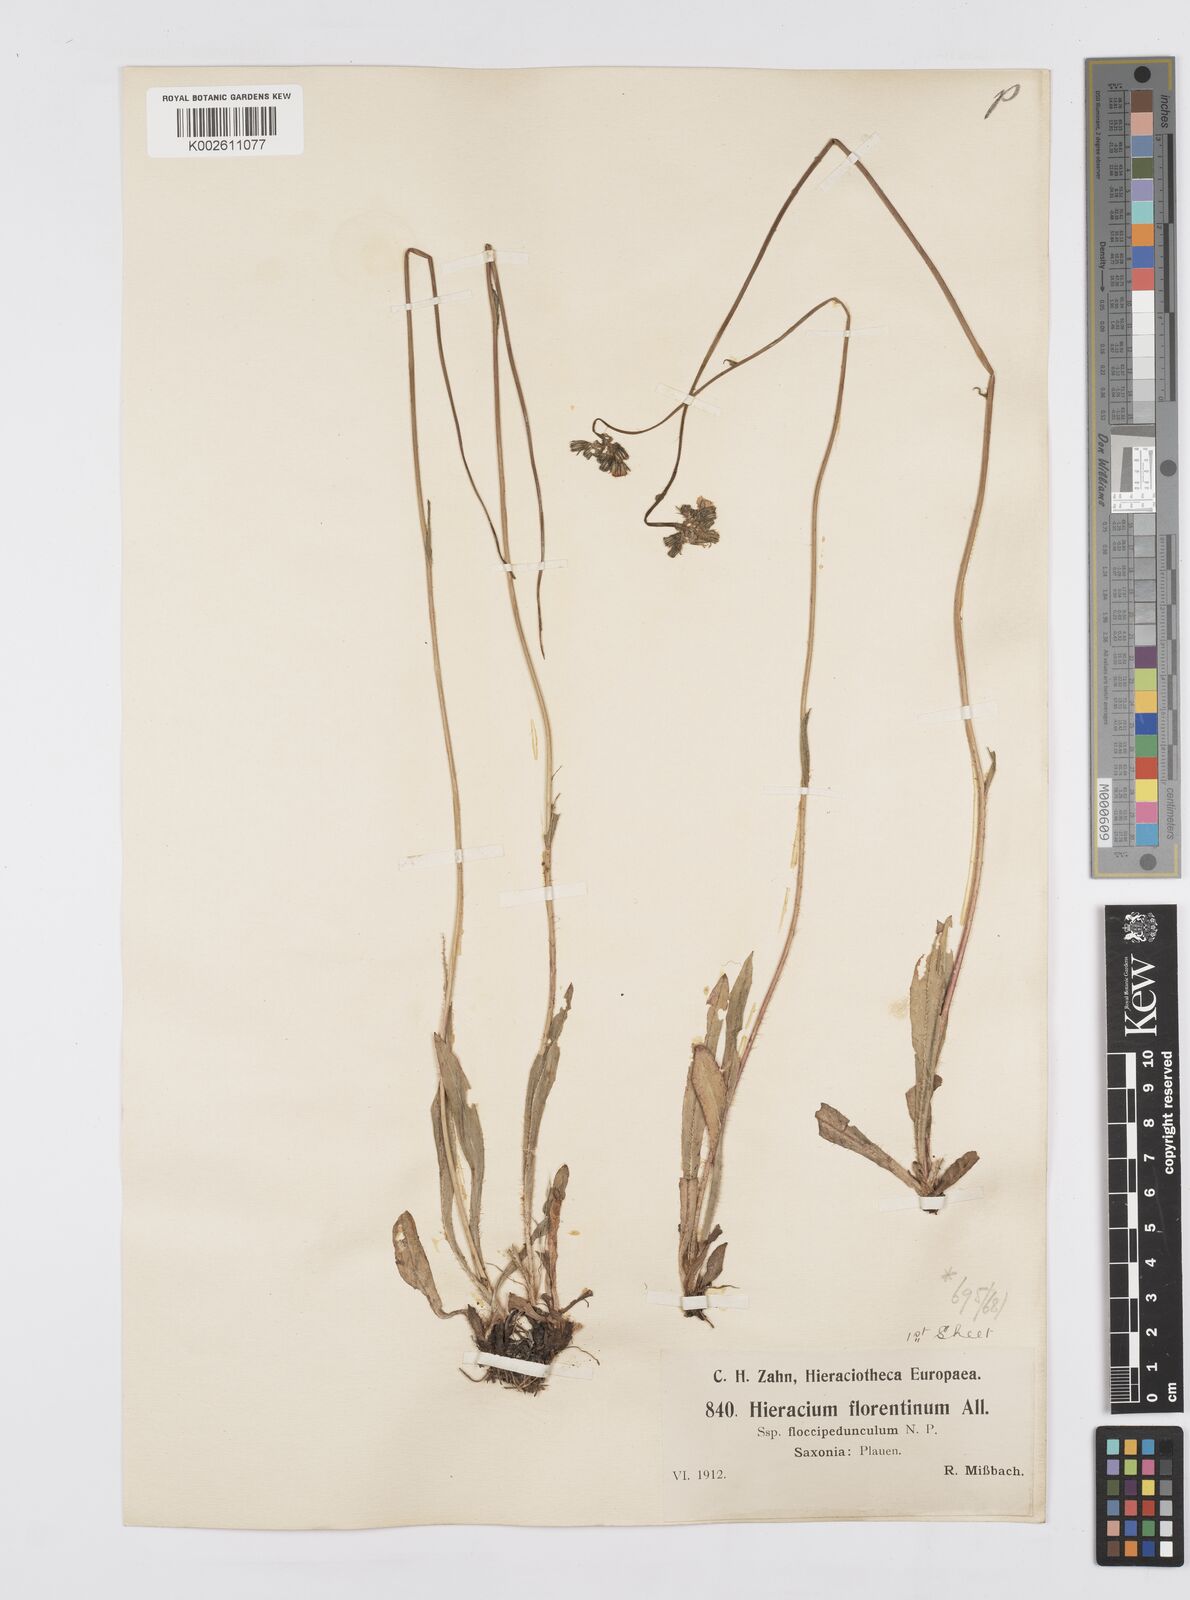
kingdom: Plantae
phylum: Tracheophyta
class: Magnoliopsida
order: Asterales
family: Asteraceae
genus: Pilosella
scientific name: Pilosella piloselloides
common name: Glaucous king-devil
